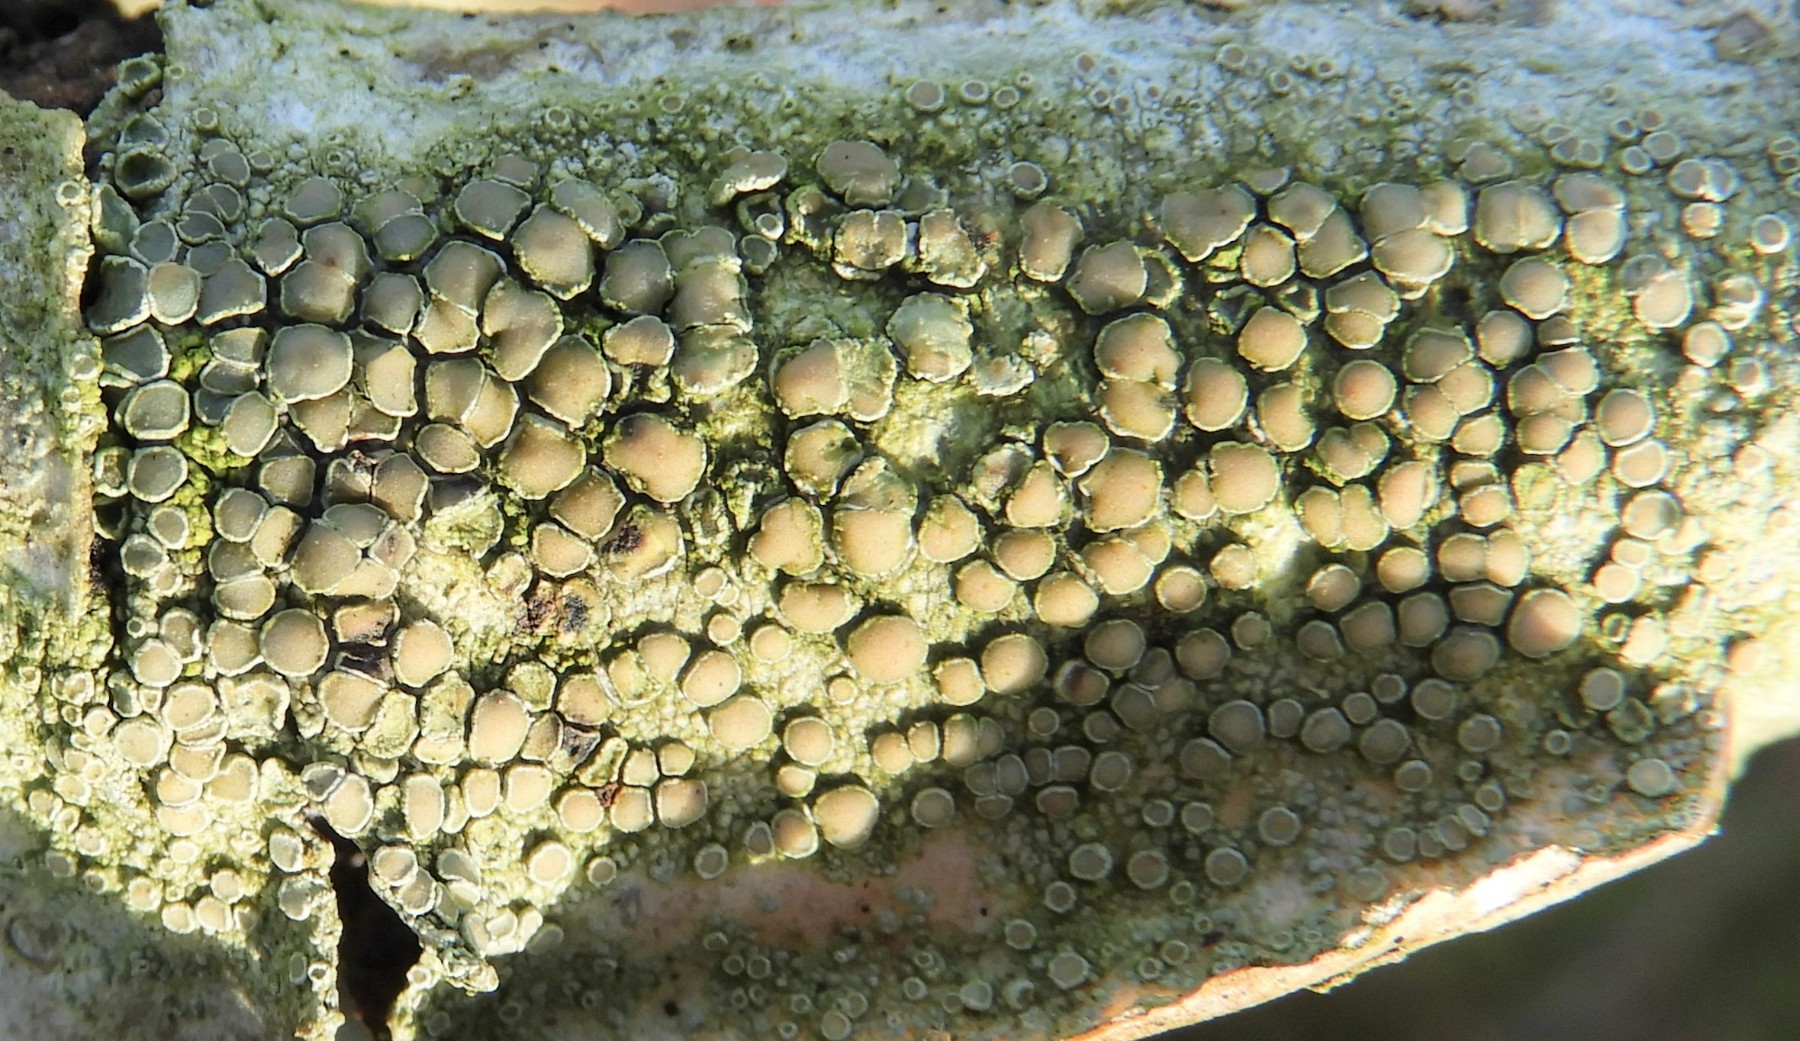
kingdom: Fungi
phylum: Ascomycota
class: Lecanoromycetes
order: Lecanorales
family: Lecanoraceae
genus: Lecanora
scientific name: Lecanora chlarotera
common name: brun kantskivelav
